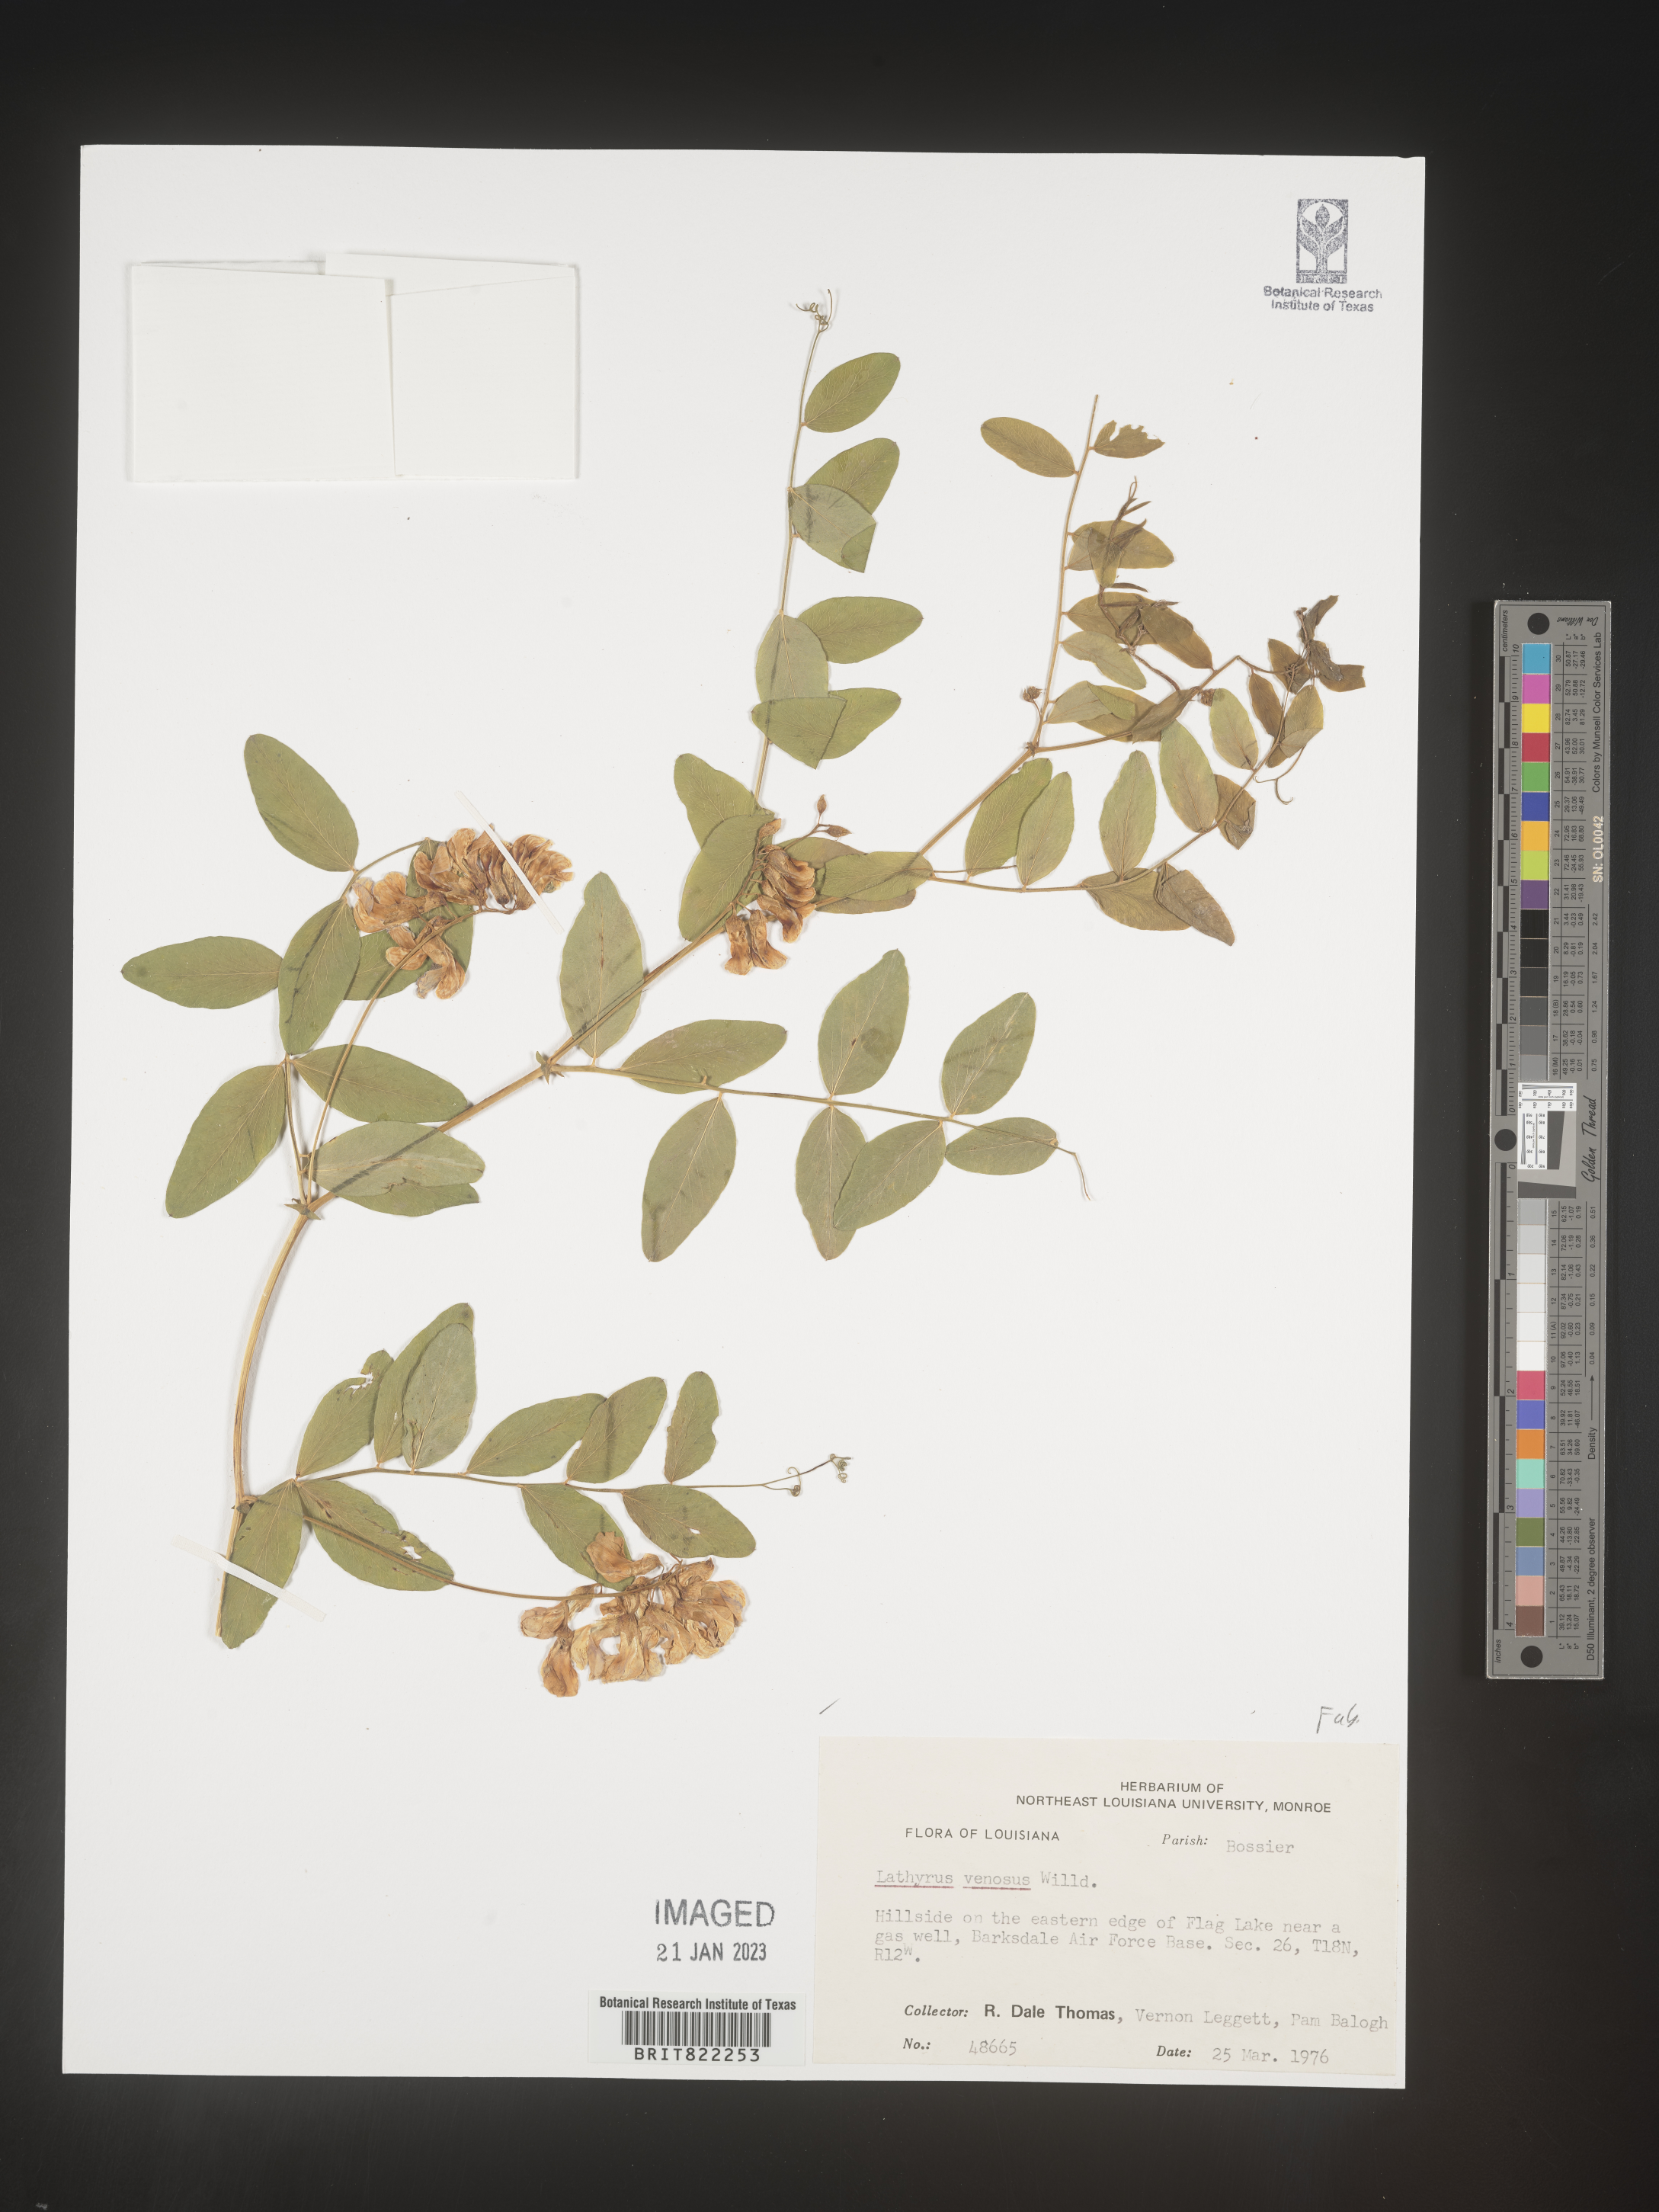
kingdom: Plantae
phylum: Tracheophyta
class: Magnoliopsida
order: Fabales
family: Fabaceae
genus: Lathyrus
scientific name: Lathyrus venosus
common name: Forest-pea
